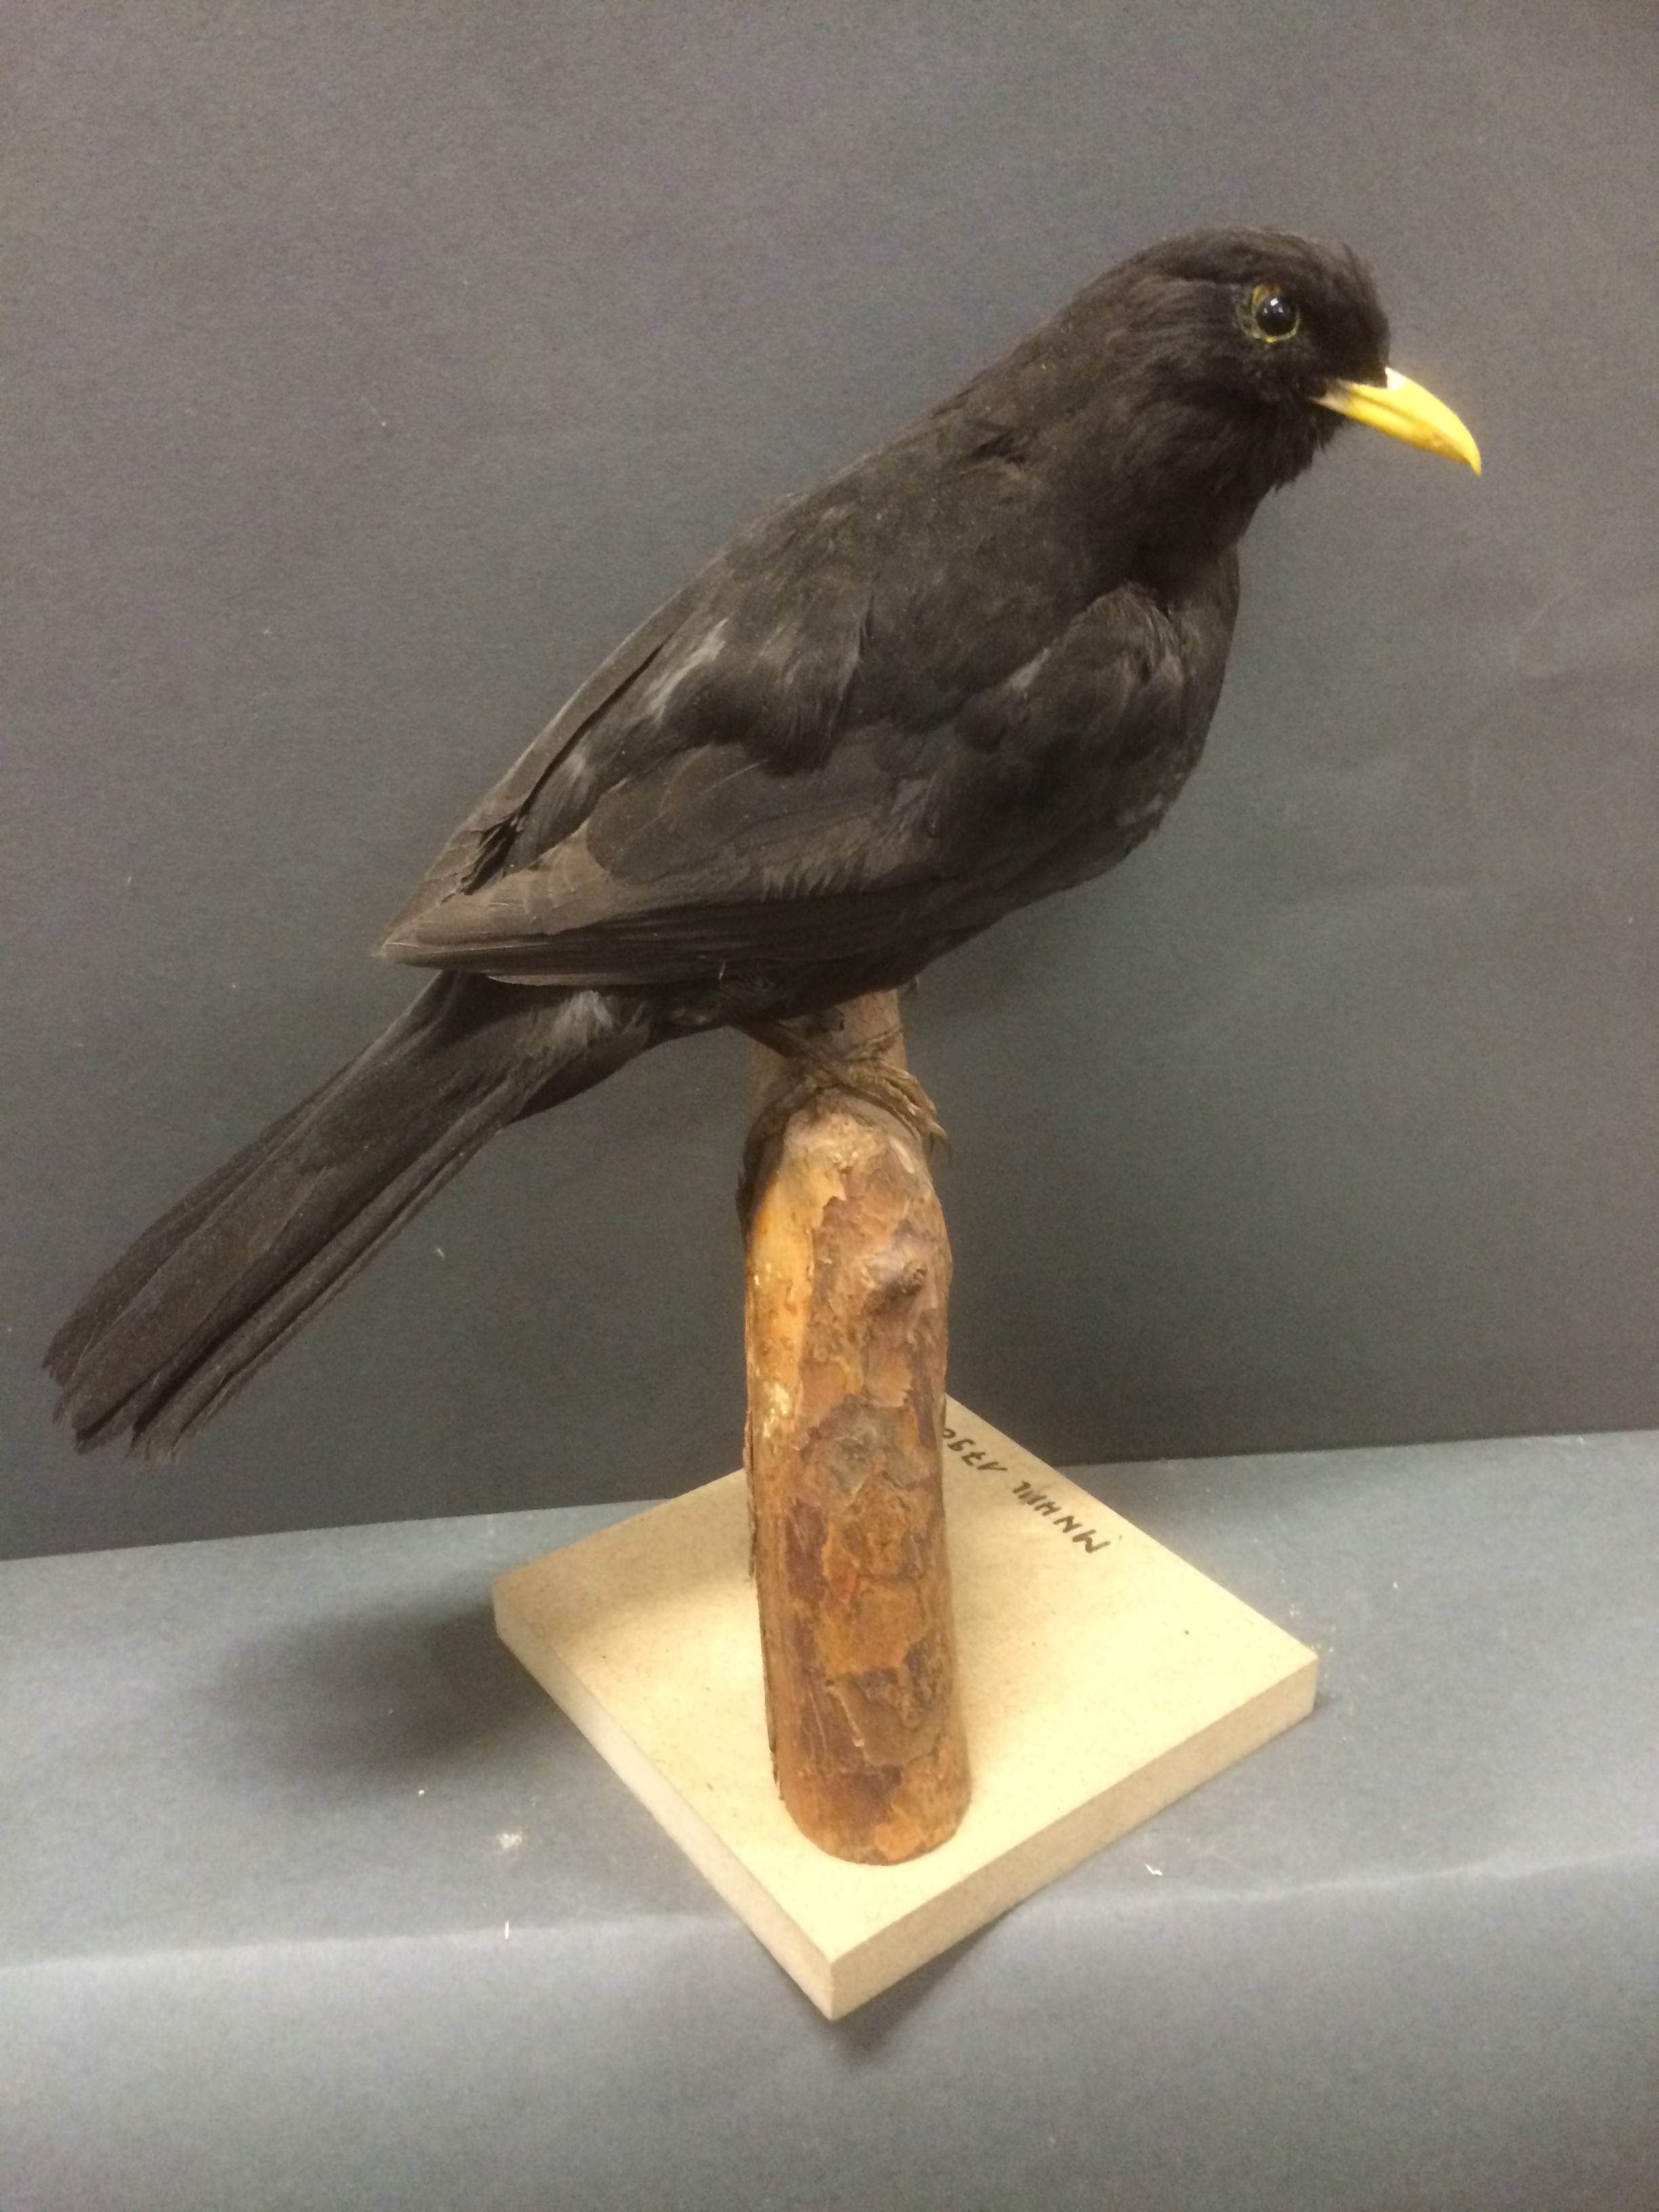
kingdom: Animalia
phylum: Chordata
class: Aves
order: Passeriformes
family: Turdidae
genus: Turdus
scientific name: Turdus merula
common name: Common blackbird
